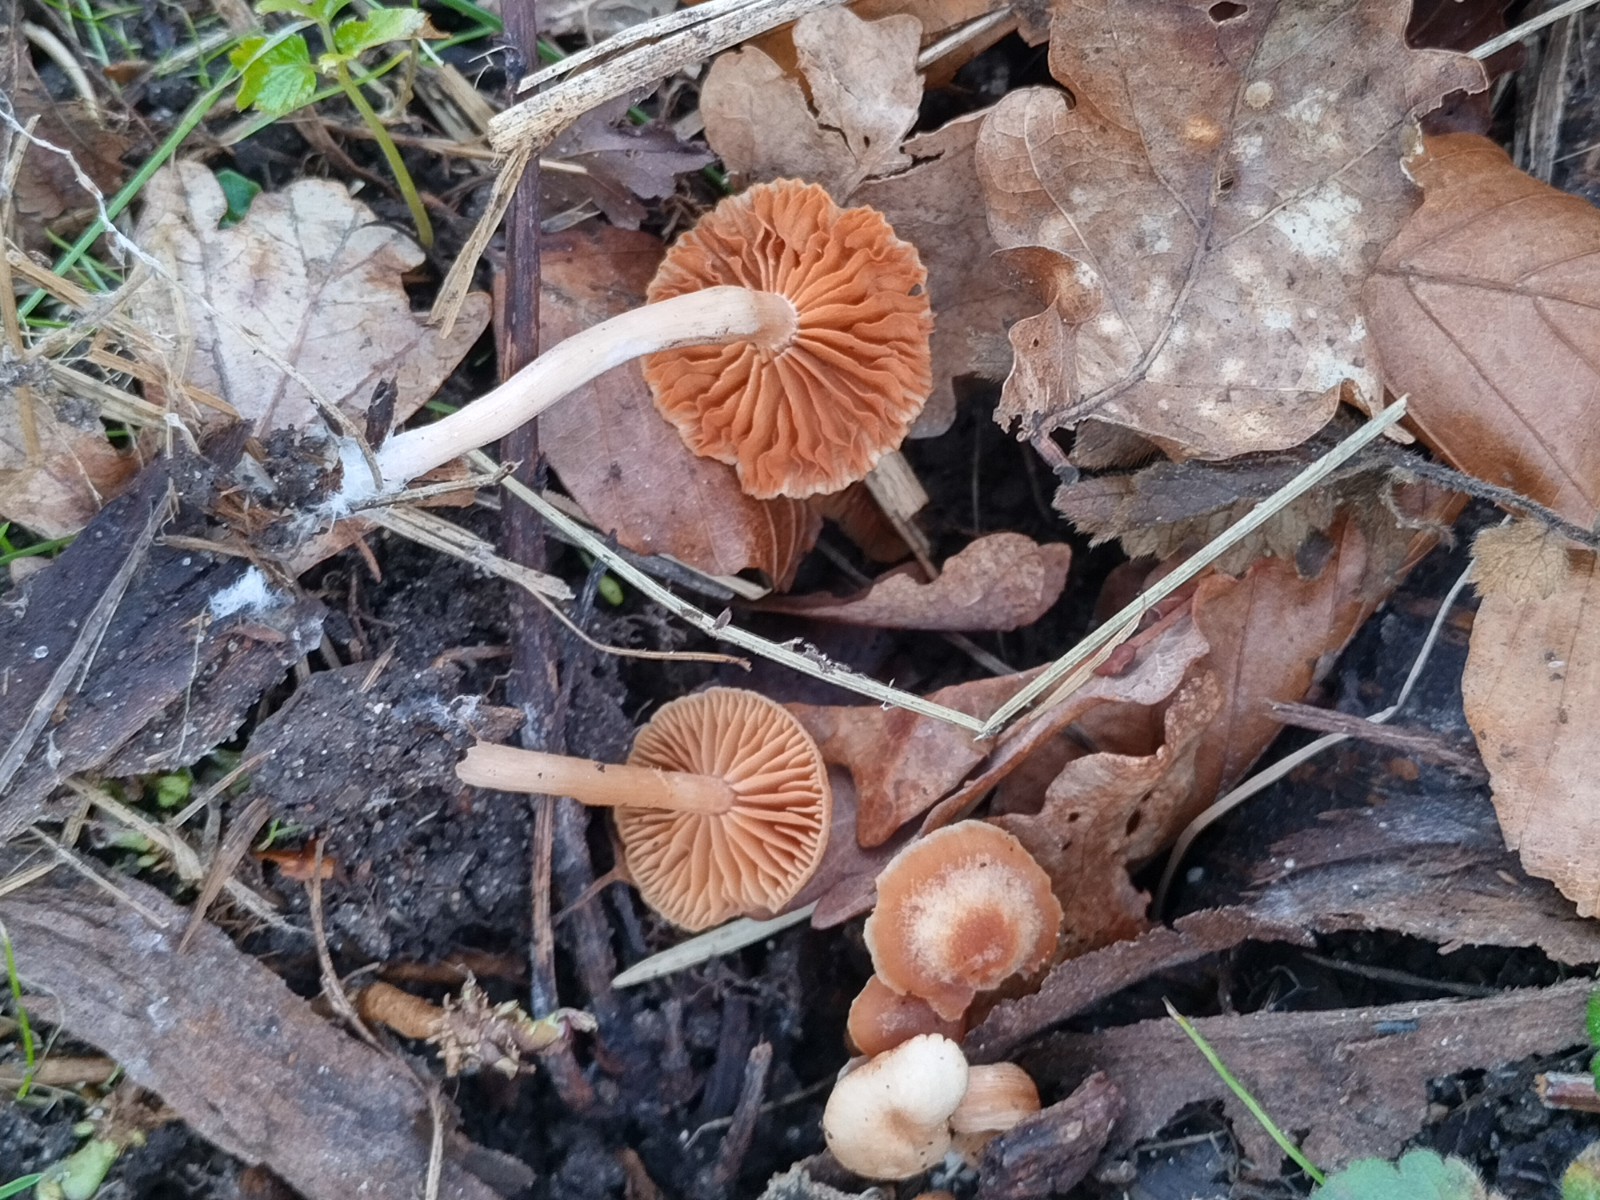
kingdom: Fungi
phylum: Basidiomycota
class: Agaricomycetes
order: Agaricales
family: Tubariaceae
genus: Tubaria
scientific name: Tubaria furfuracea
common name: kliddet fnughat
